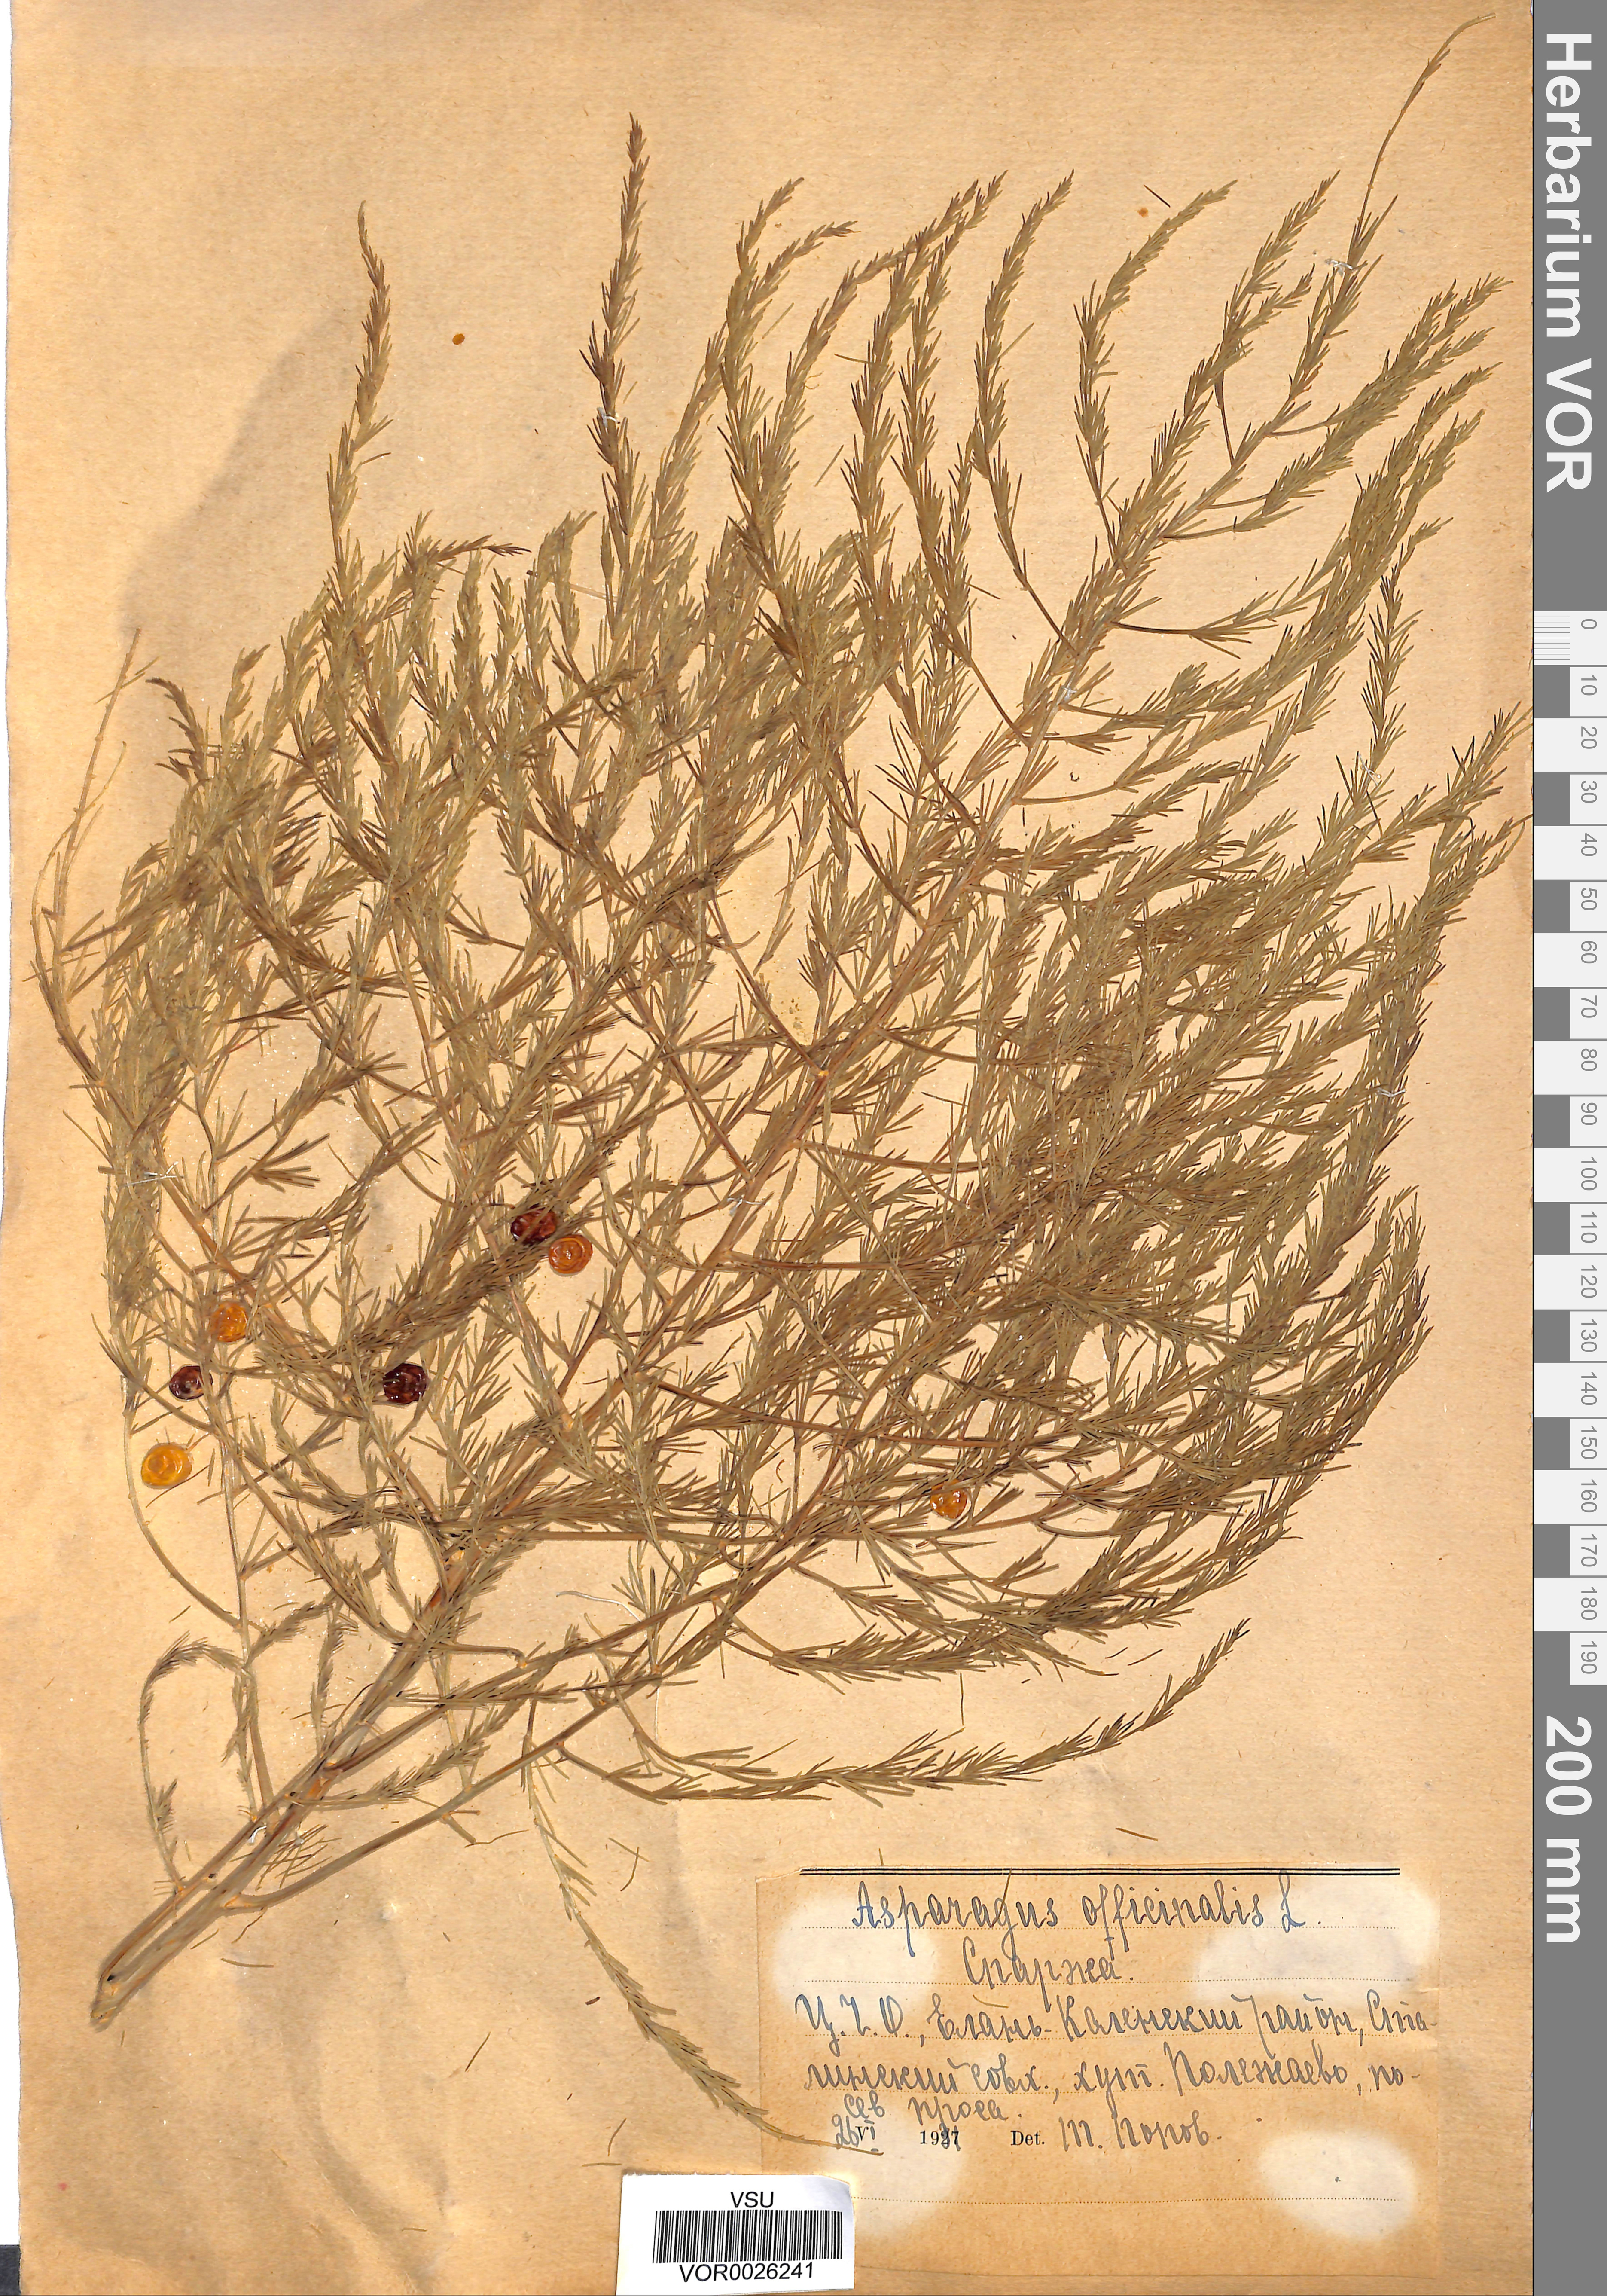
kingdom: Plantae
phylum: Tracheophyta
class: Liliopsida
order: Asparagales
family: Asparagaceae
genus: Asparagus
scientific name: Asparagus officinalis
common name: Garden asparagus
